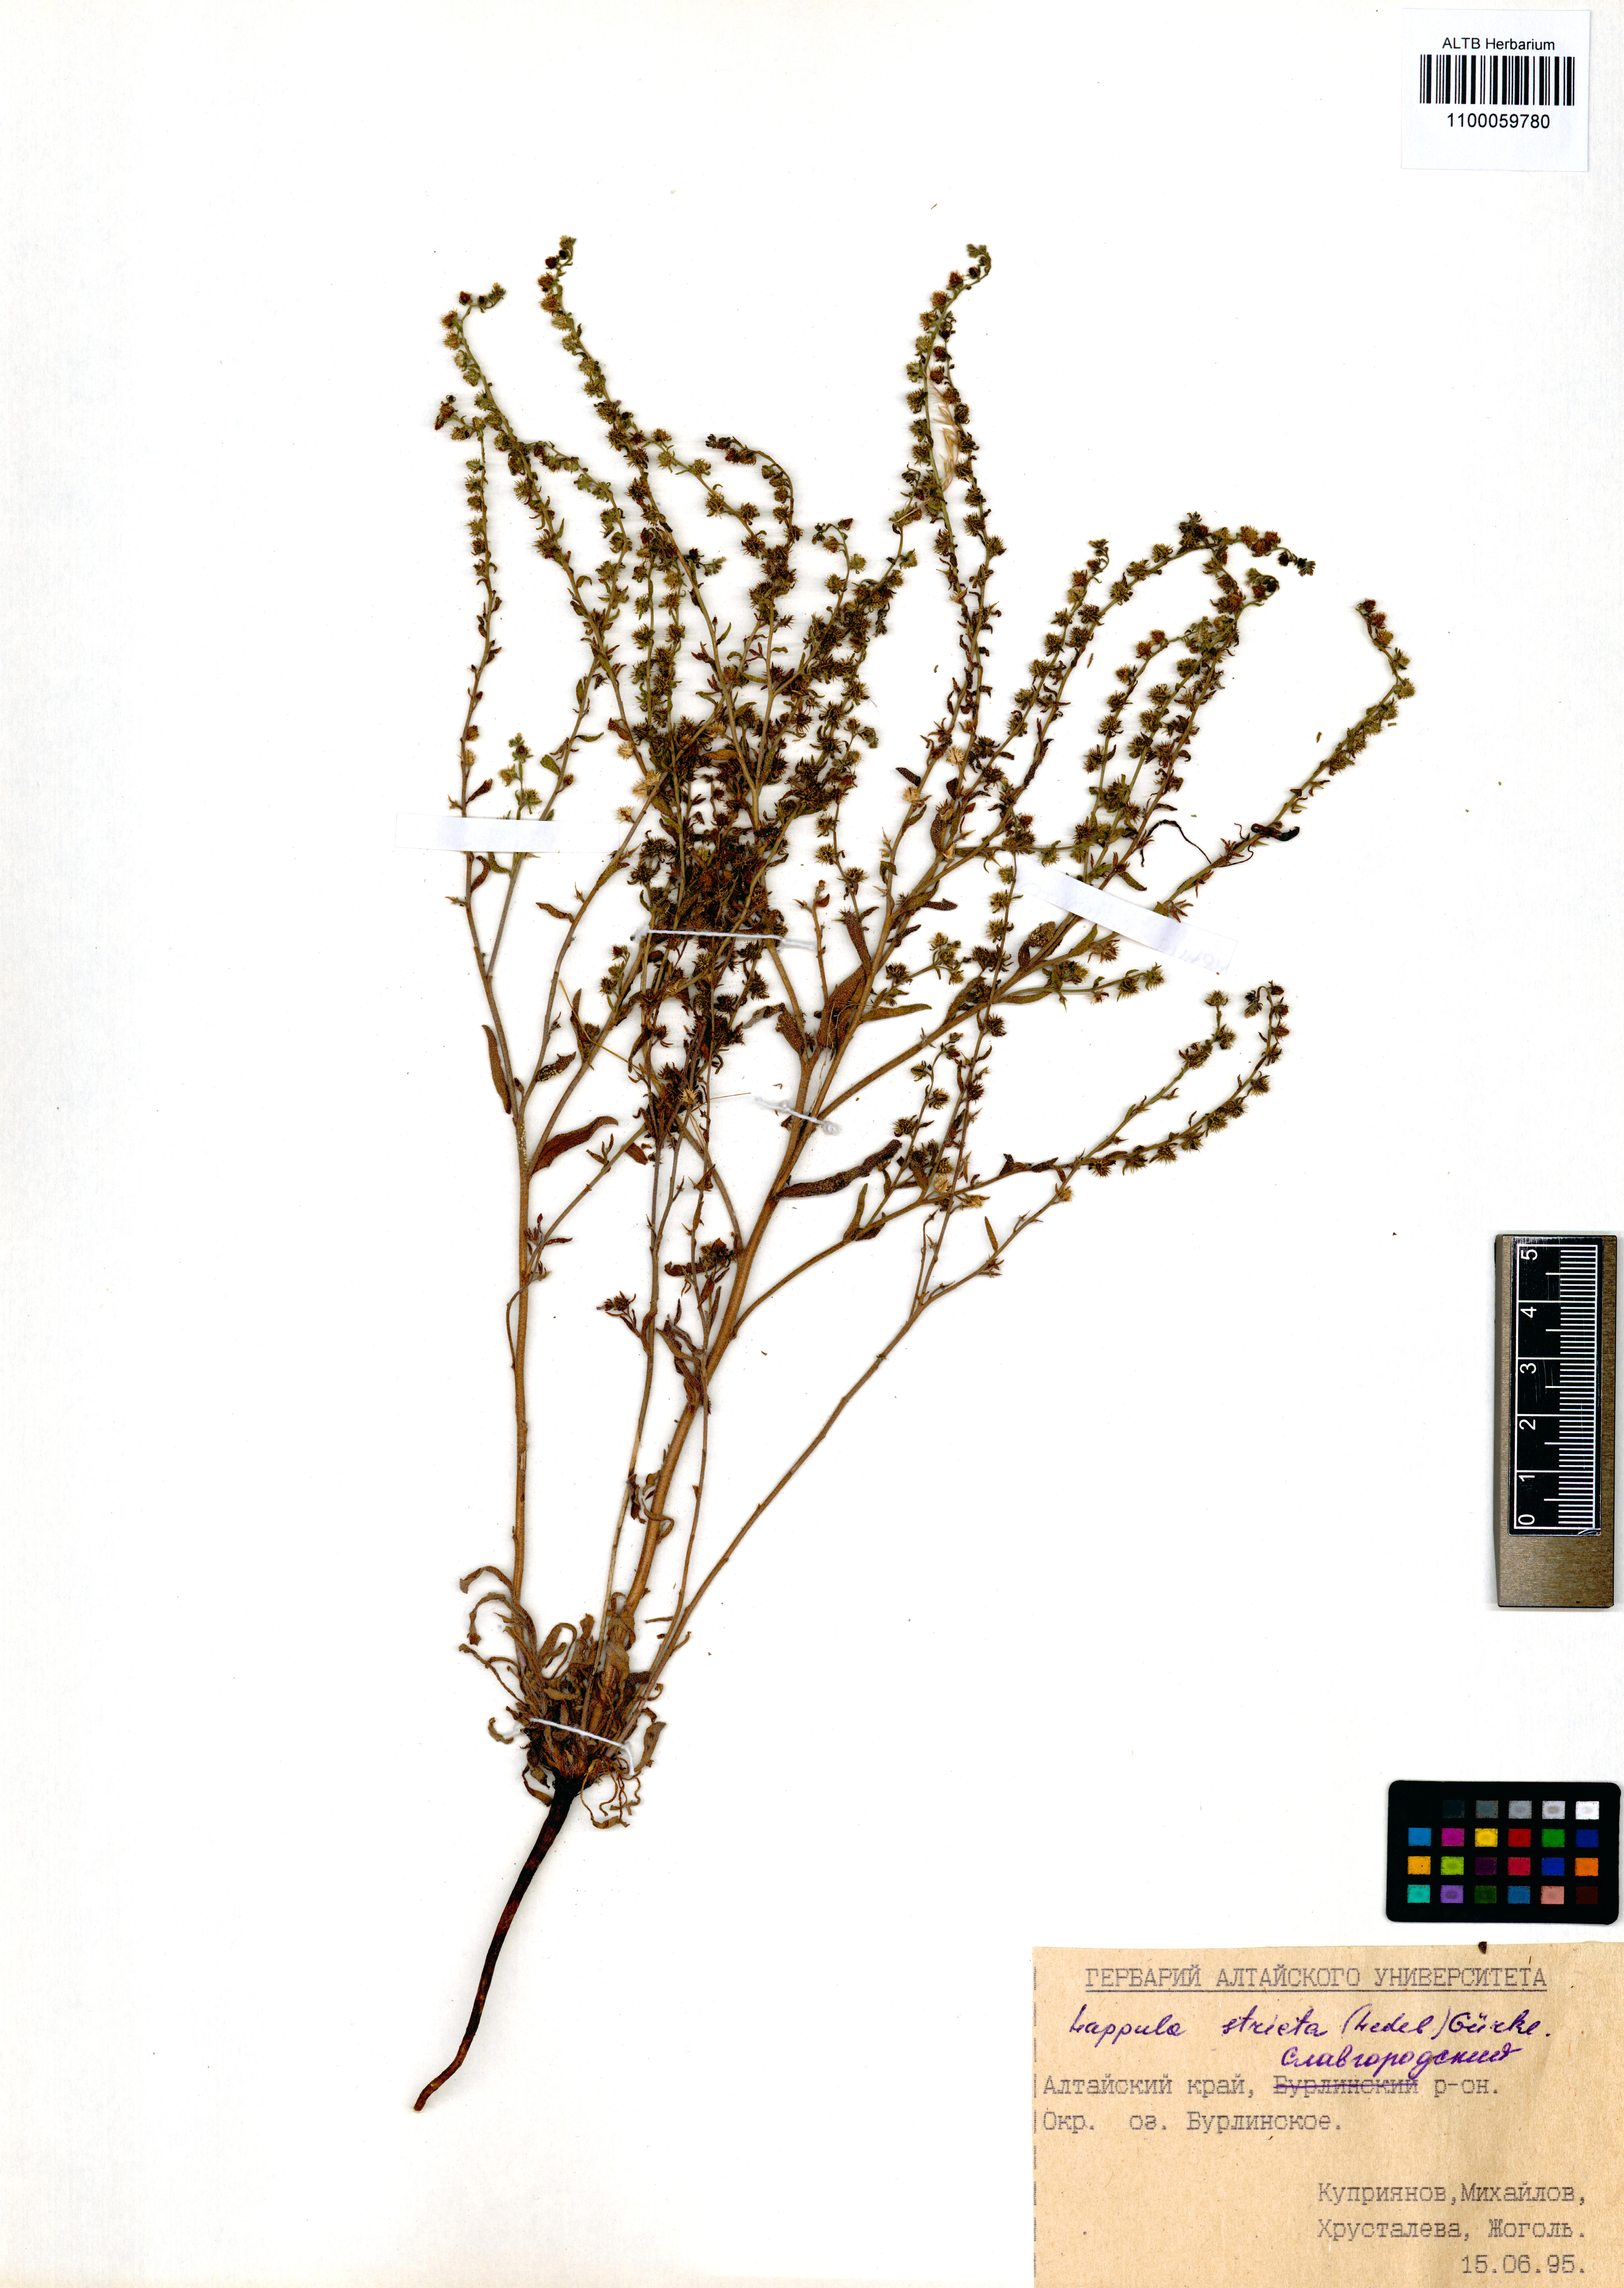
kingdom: Plantae
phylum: Tracheophyta
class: Magnoliopsida
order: Boraginales
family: Boraginaceae
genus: Lappula
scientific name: Lappula stricta
